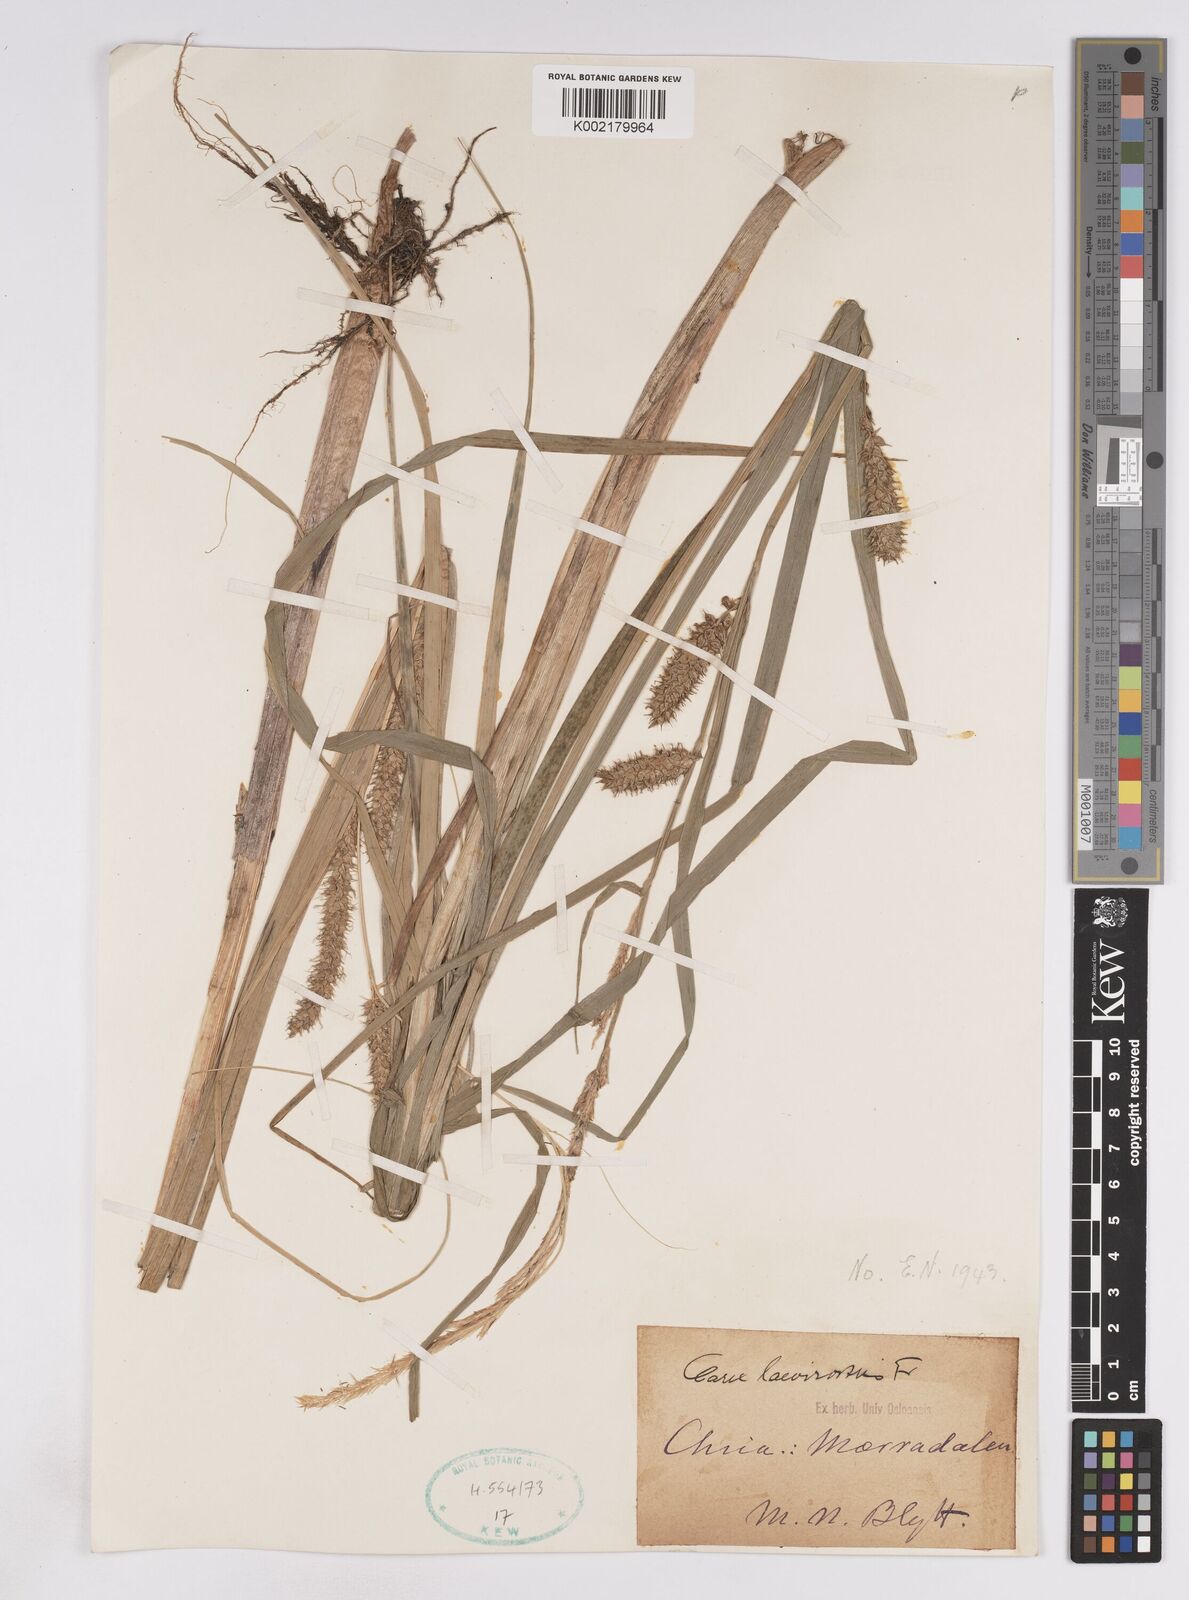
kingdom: Plantae
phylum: Tracheophyta
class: Liliopsida
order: Poales
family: Cyperaceae
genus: Carex
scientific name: Carex utriculata
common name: Beaked sedge
